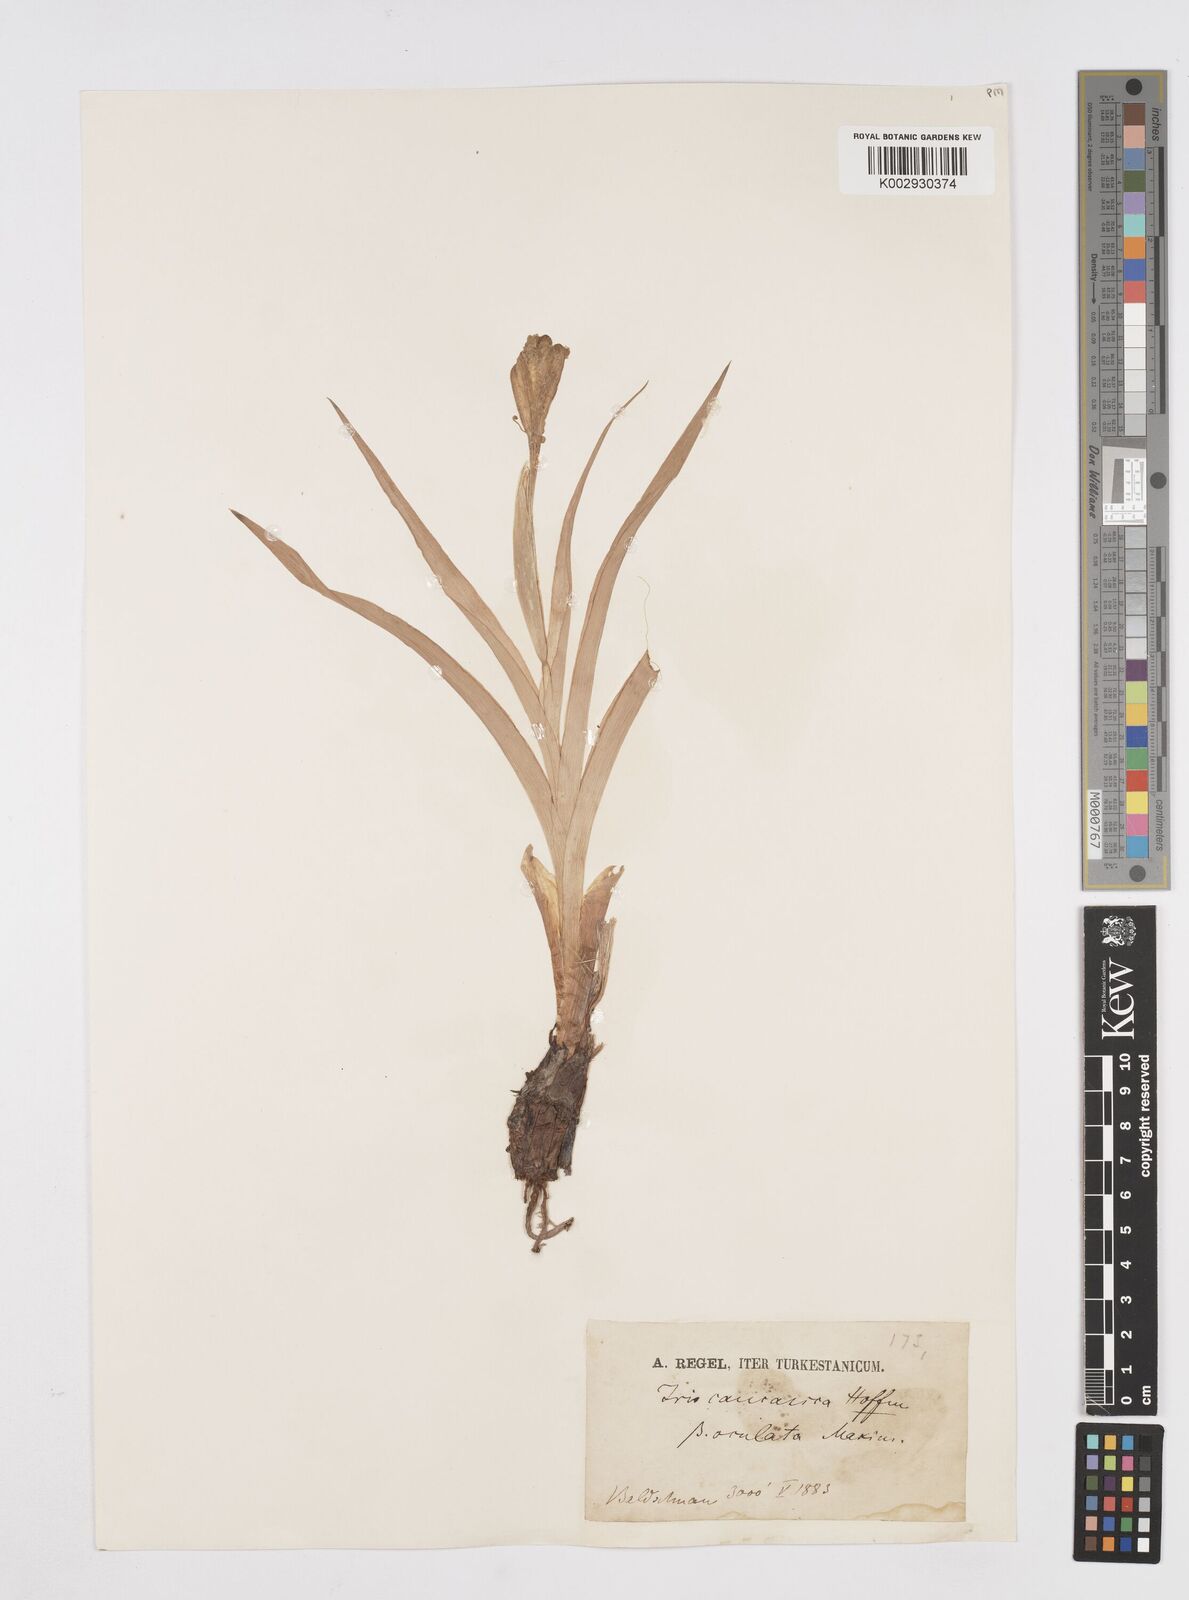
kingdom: Plantae
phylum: Tracheophyta
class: Liliopsida
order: Asparagales
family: Iridaceae
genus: Iris
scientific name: Iris orchioides
